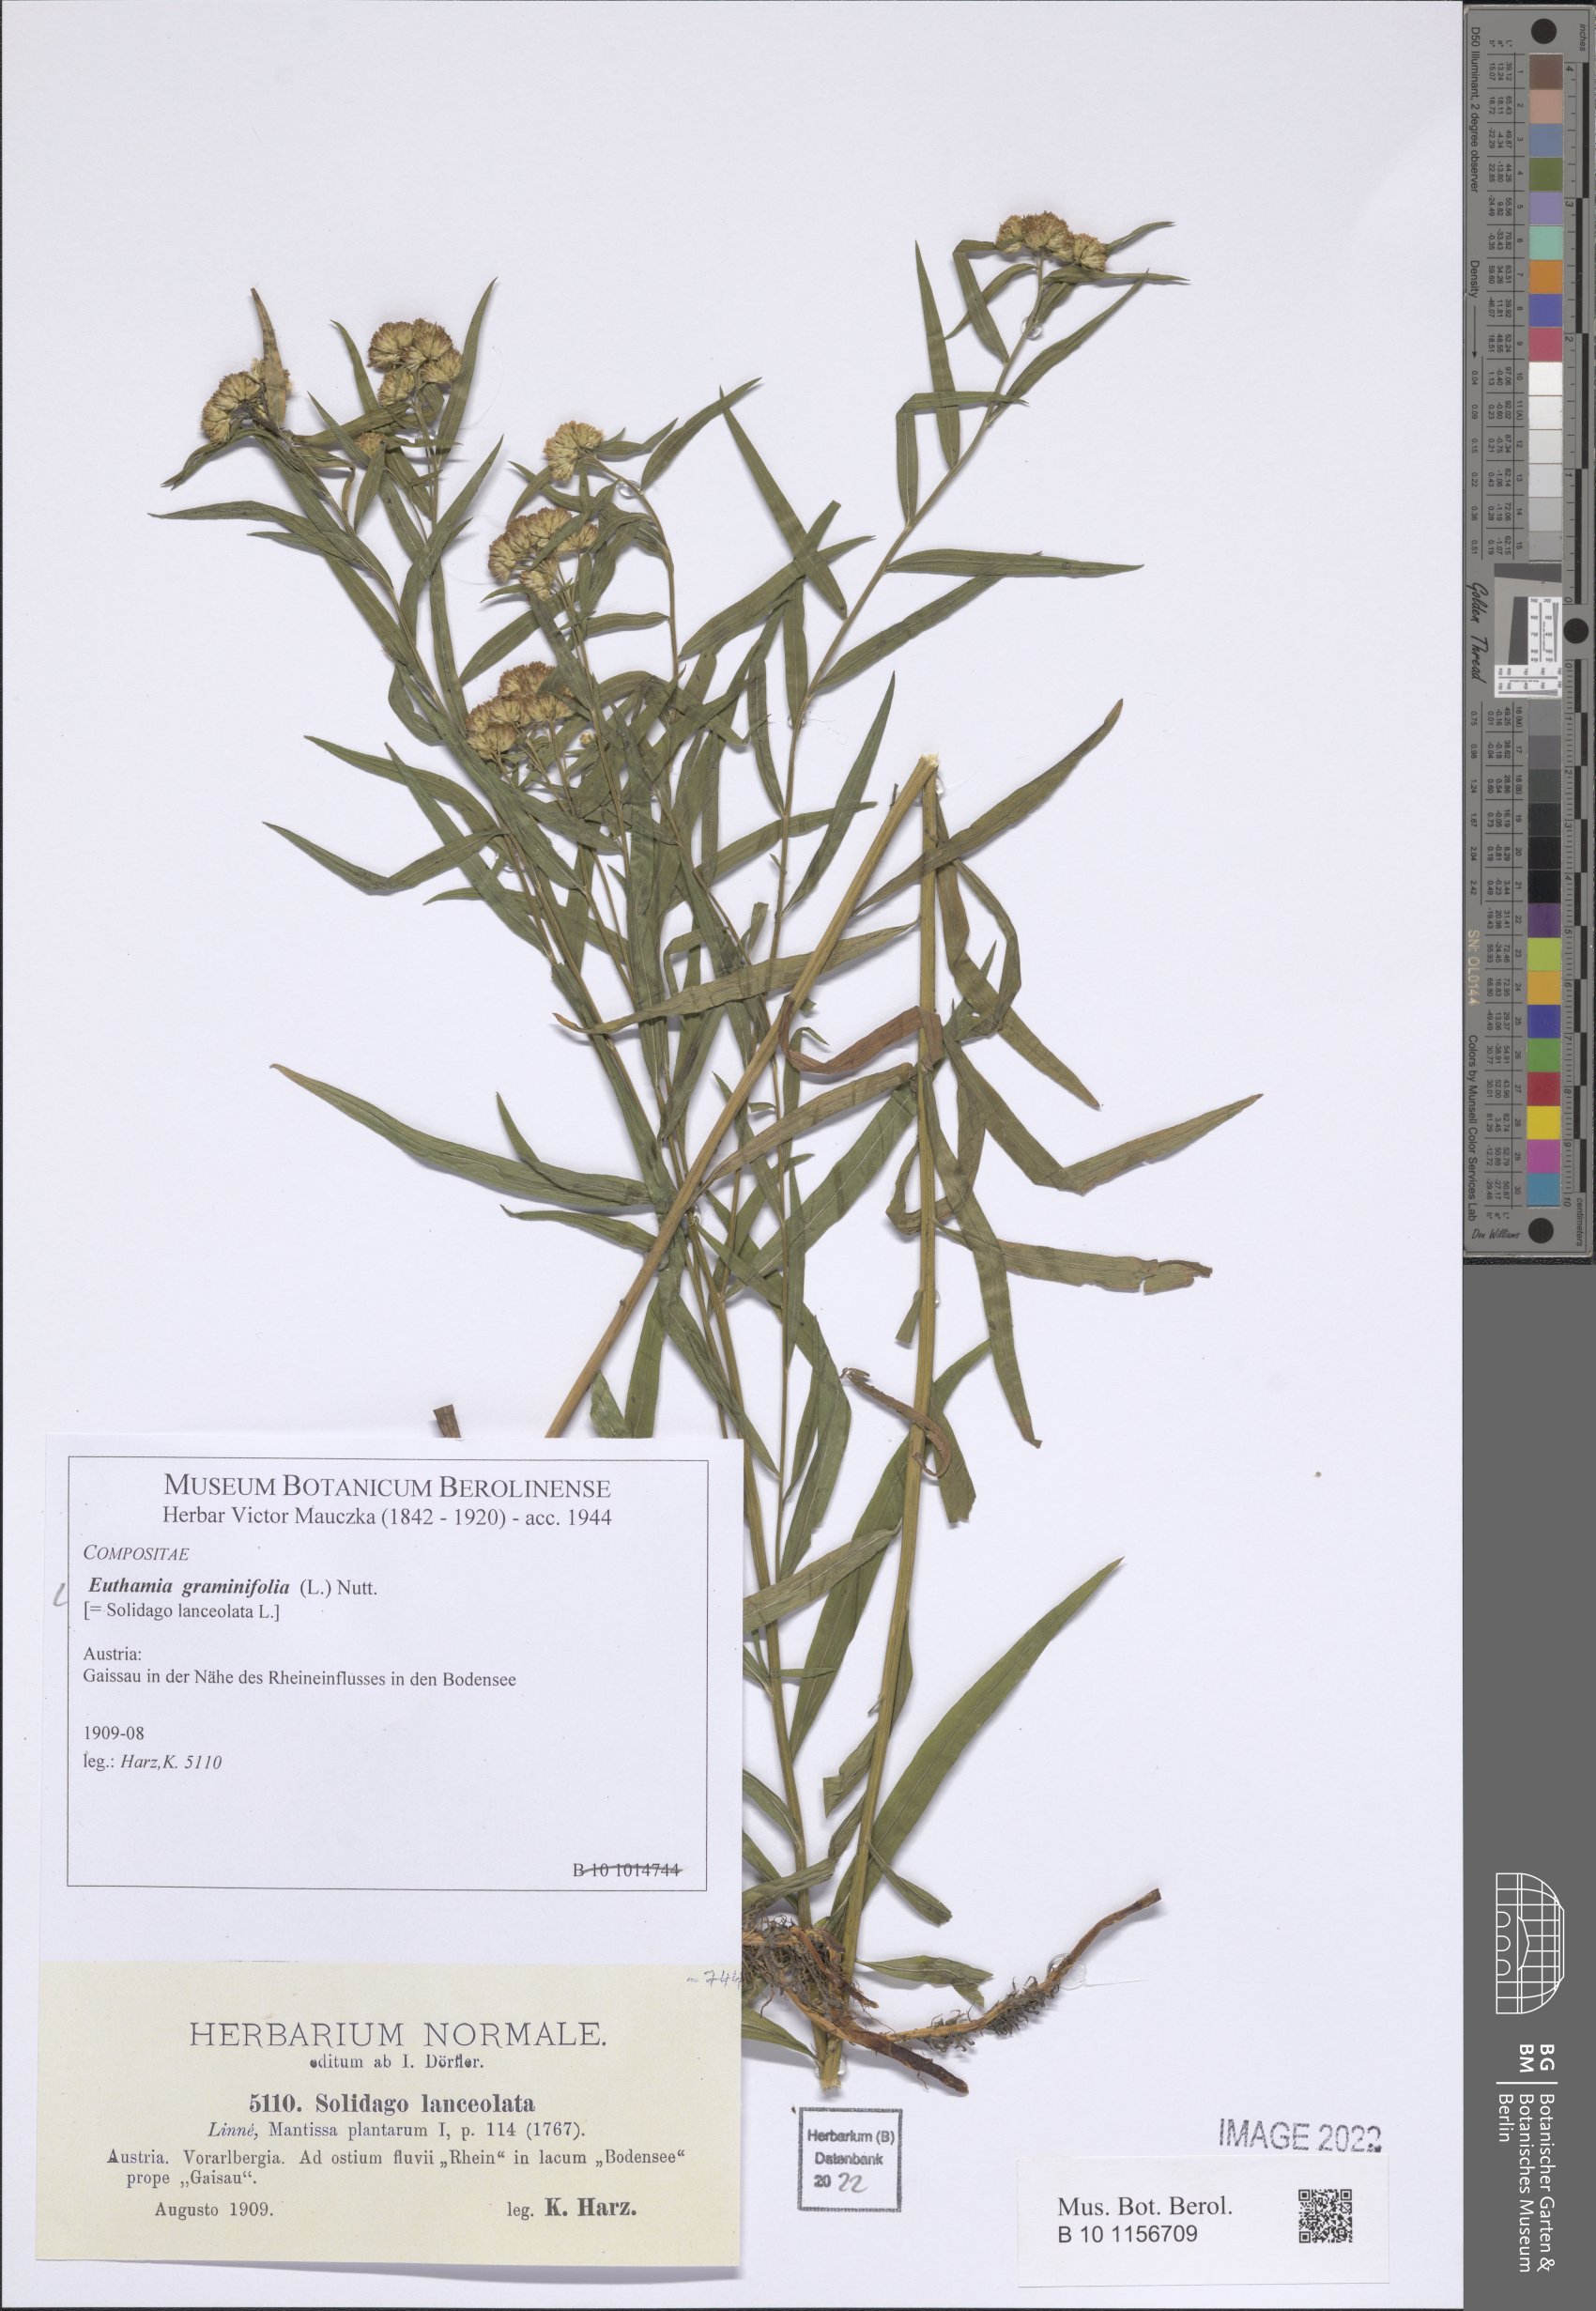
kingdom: Plantae
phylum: Tracheophyta
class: Magnoliopsida
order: Asterales
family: Asteraceae
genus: Euthamia
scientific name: Euthamia graminifolia
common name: Common goldentop
